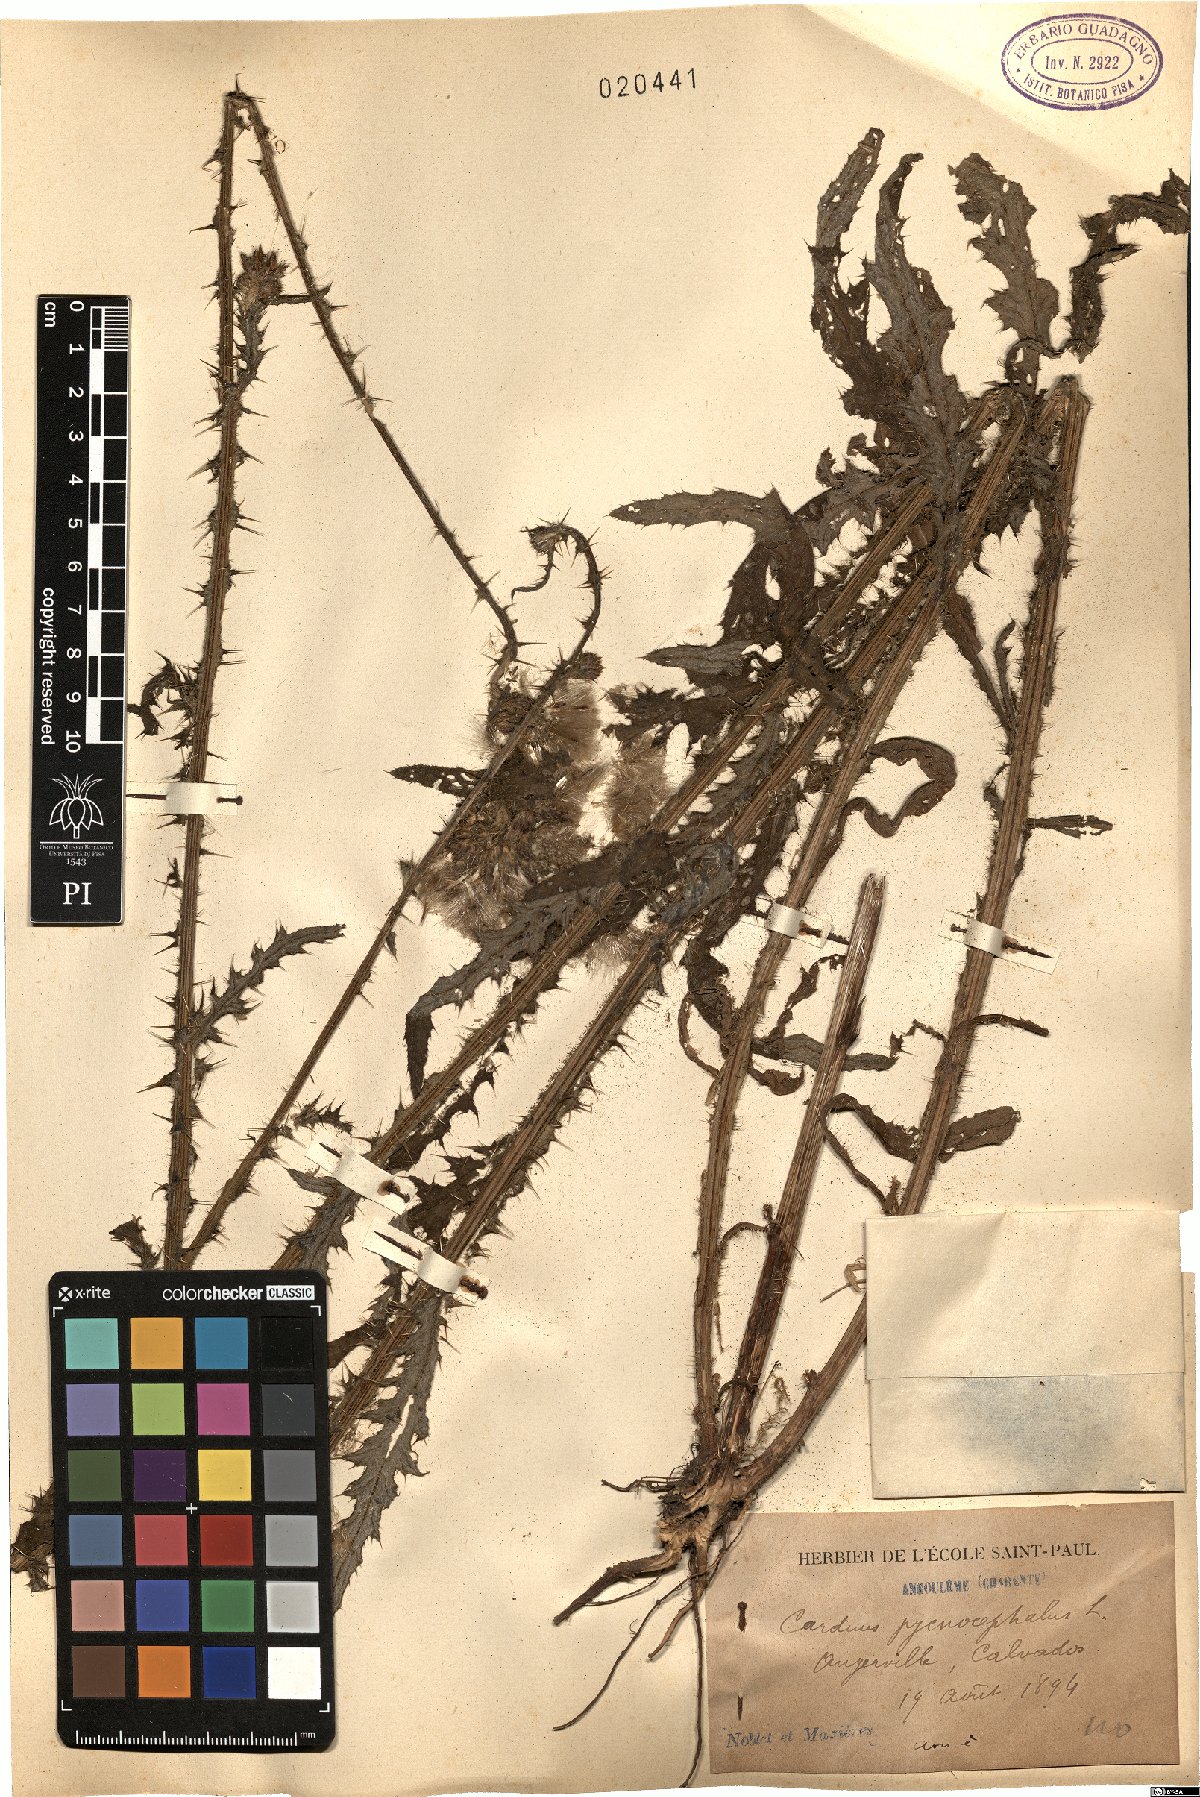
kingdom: Plantae
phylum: Tracheophyta
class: Magnoliopsida
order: Asterales
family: Asteraceae
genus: Carduus
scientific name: Carduus pycnocephalus
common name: Plymouth thistle
